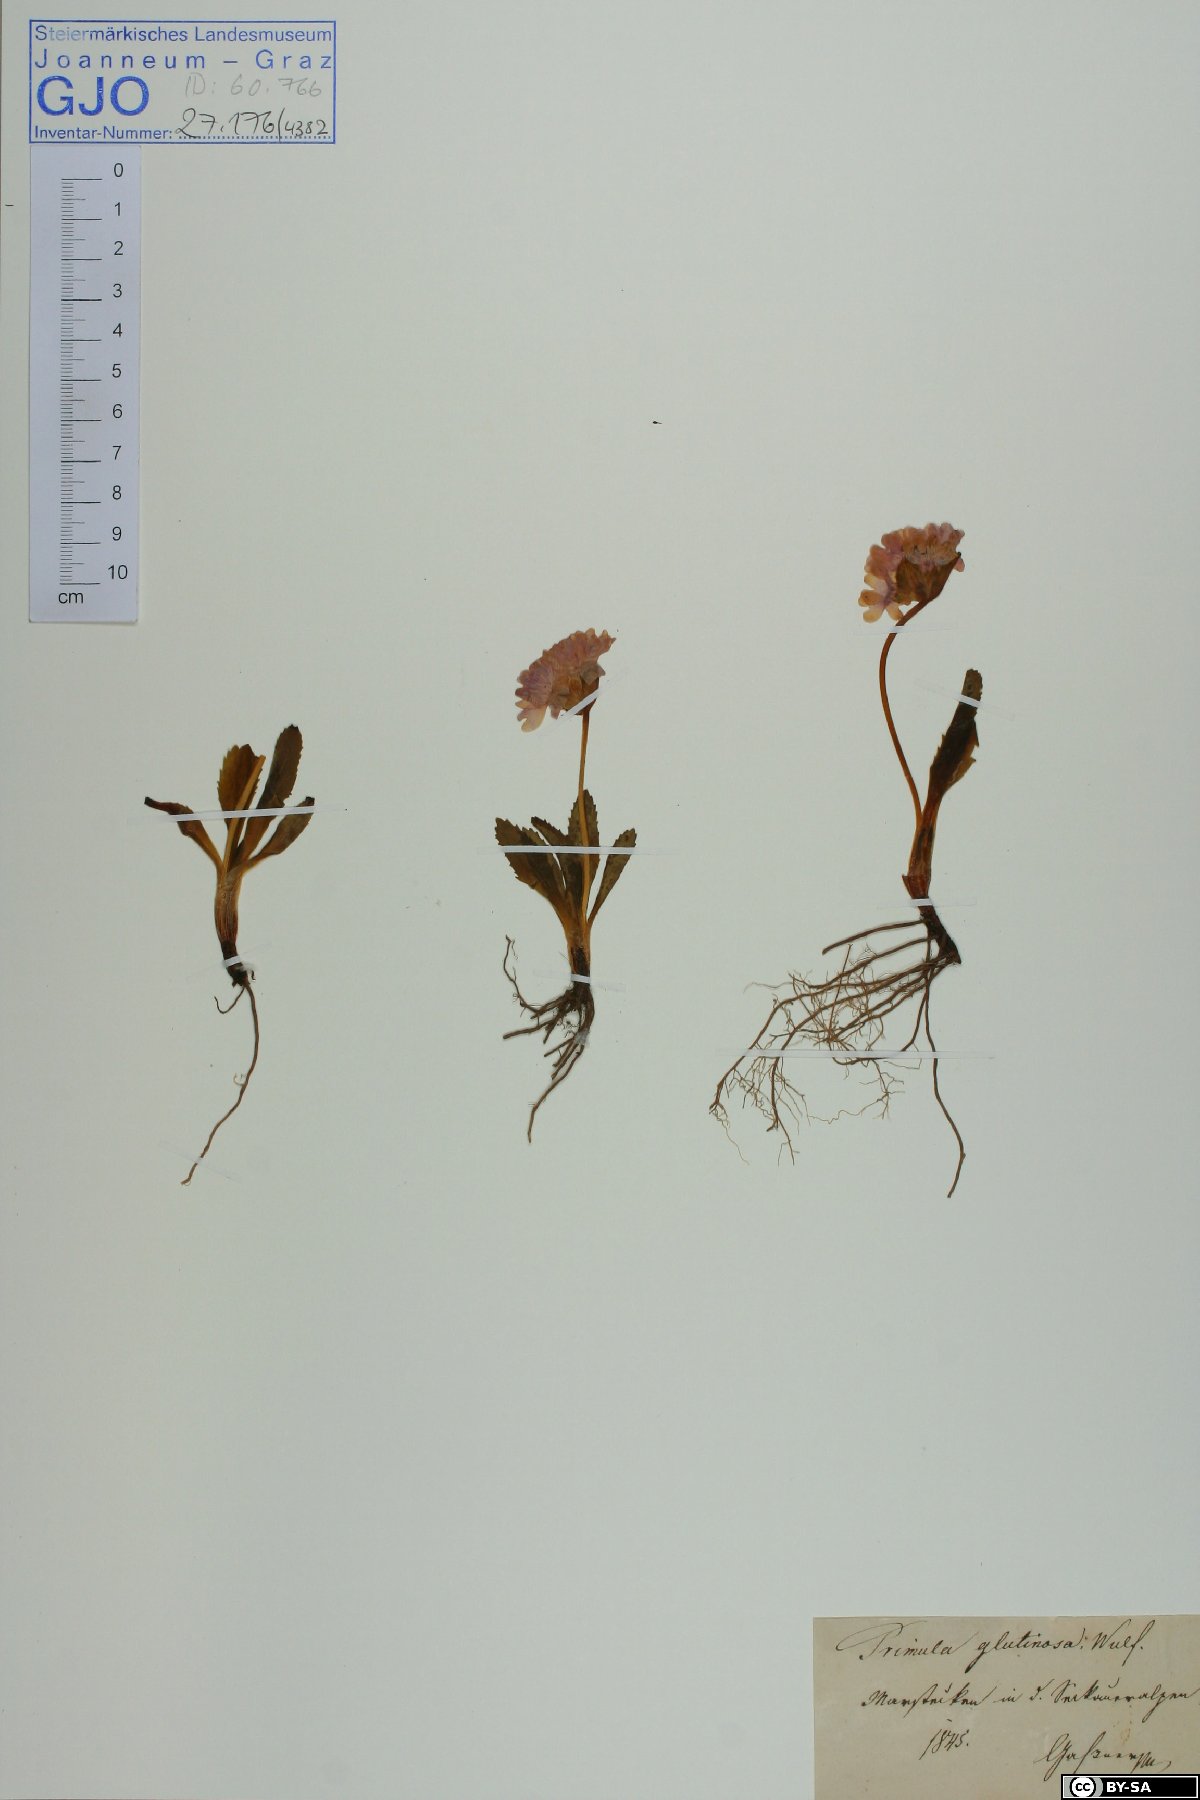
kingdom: Plantae
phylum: Tracheophyta
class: Magnoliopsida
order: Ericales
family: Primulaceae
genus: Primula
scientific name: Primula glutinosa
